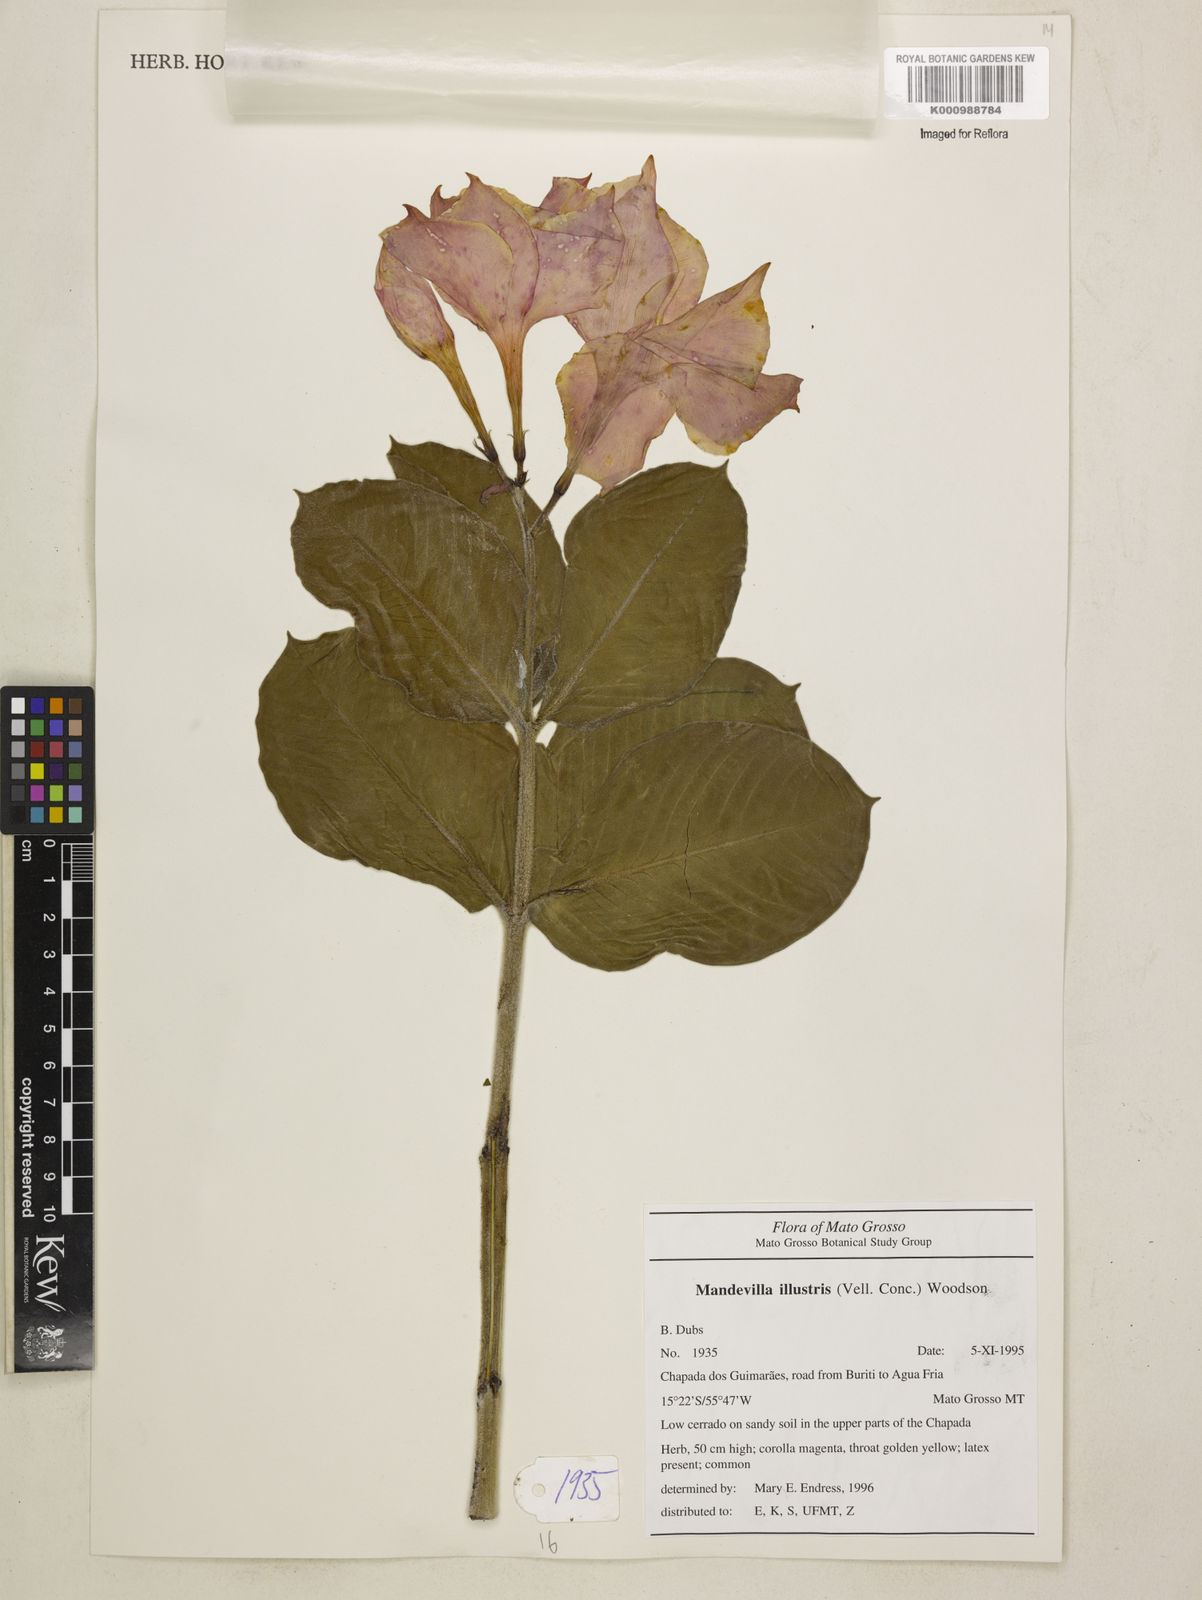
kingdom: Plantae
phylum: Tracheophyta
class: Magnoliopsida
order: Gentianales
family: Apocynaceae
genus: Mandevilla
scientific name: Mandevilla illustris
